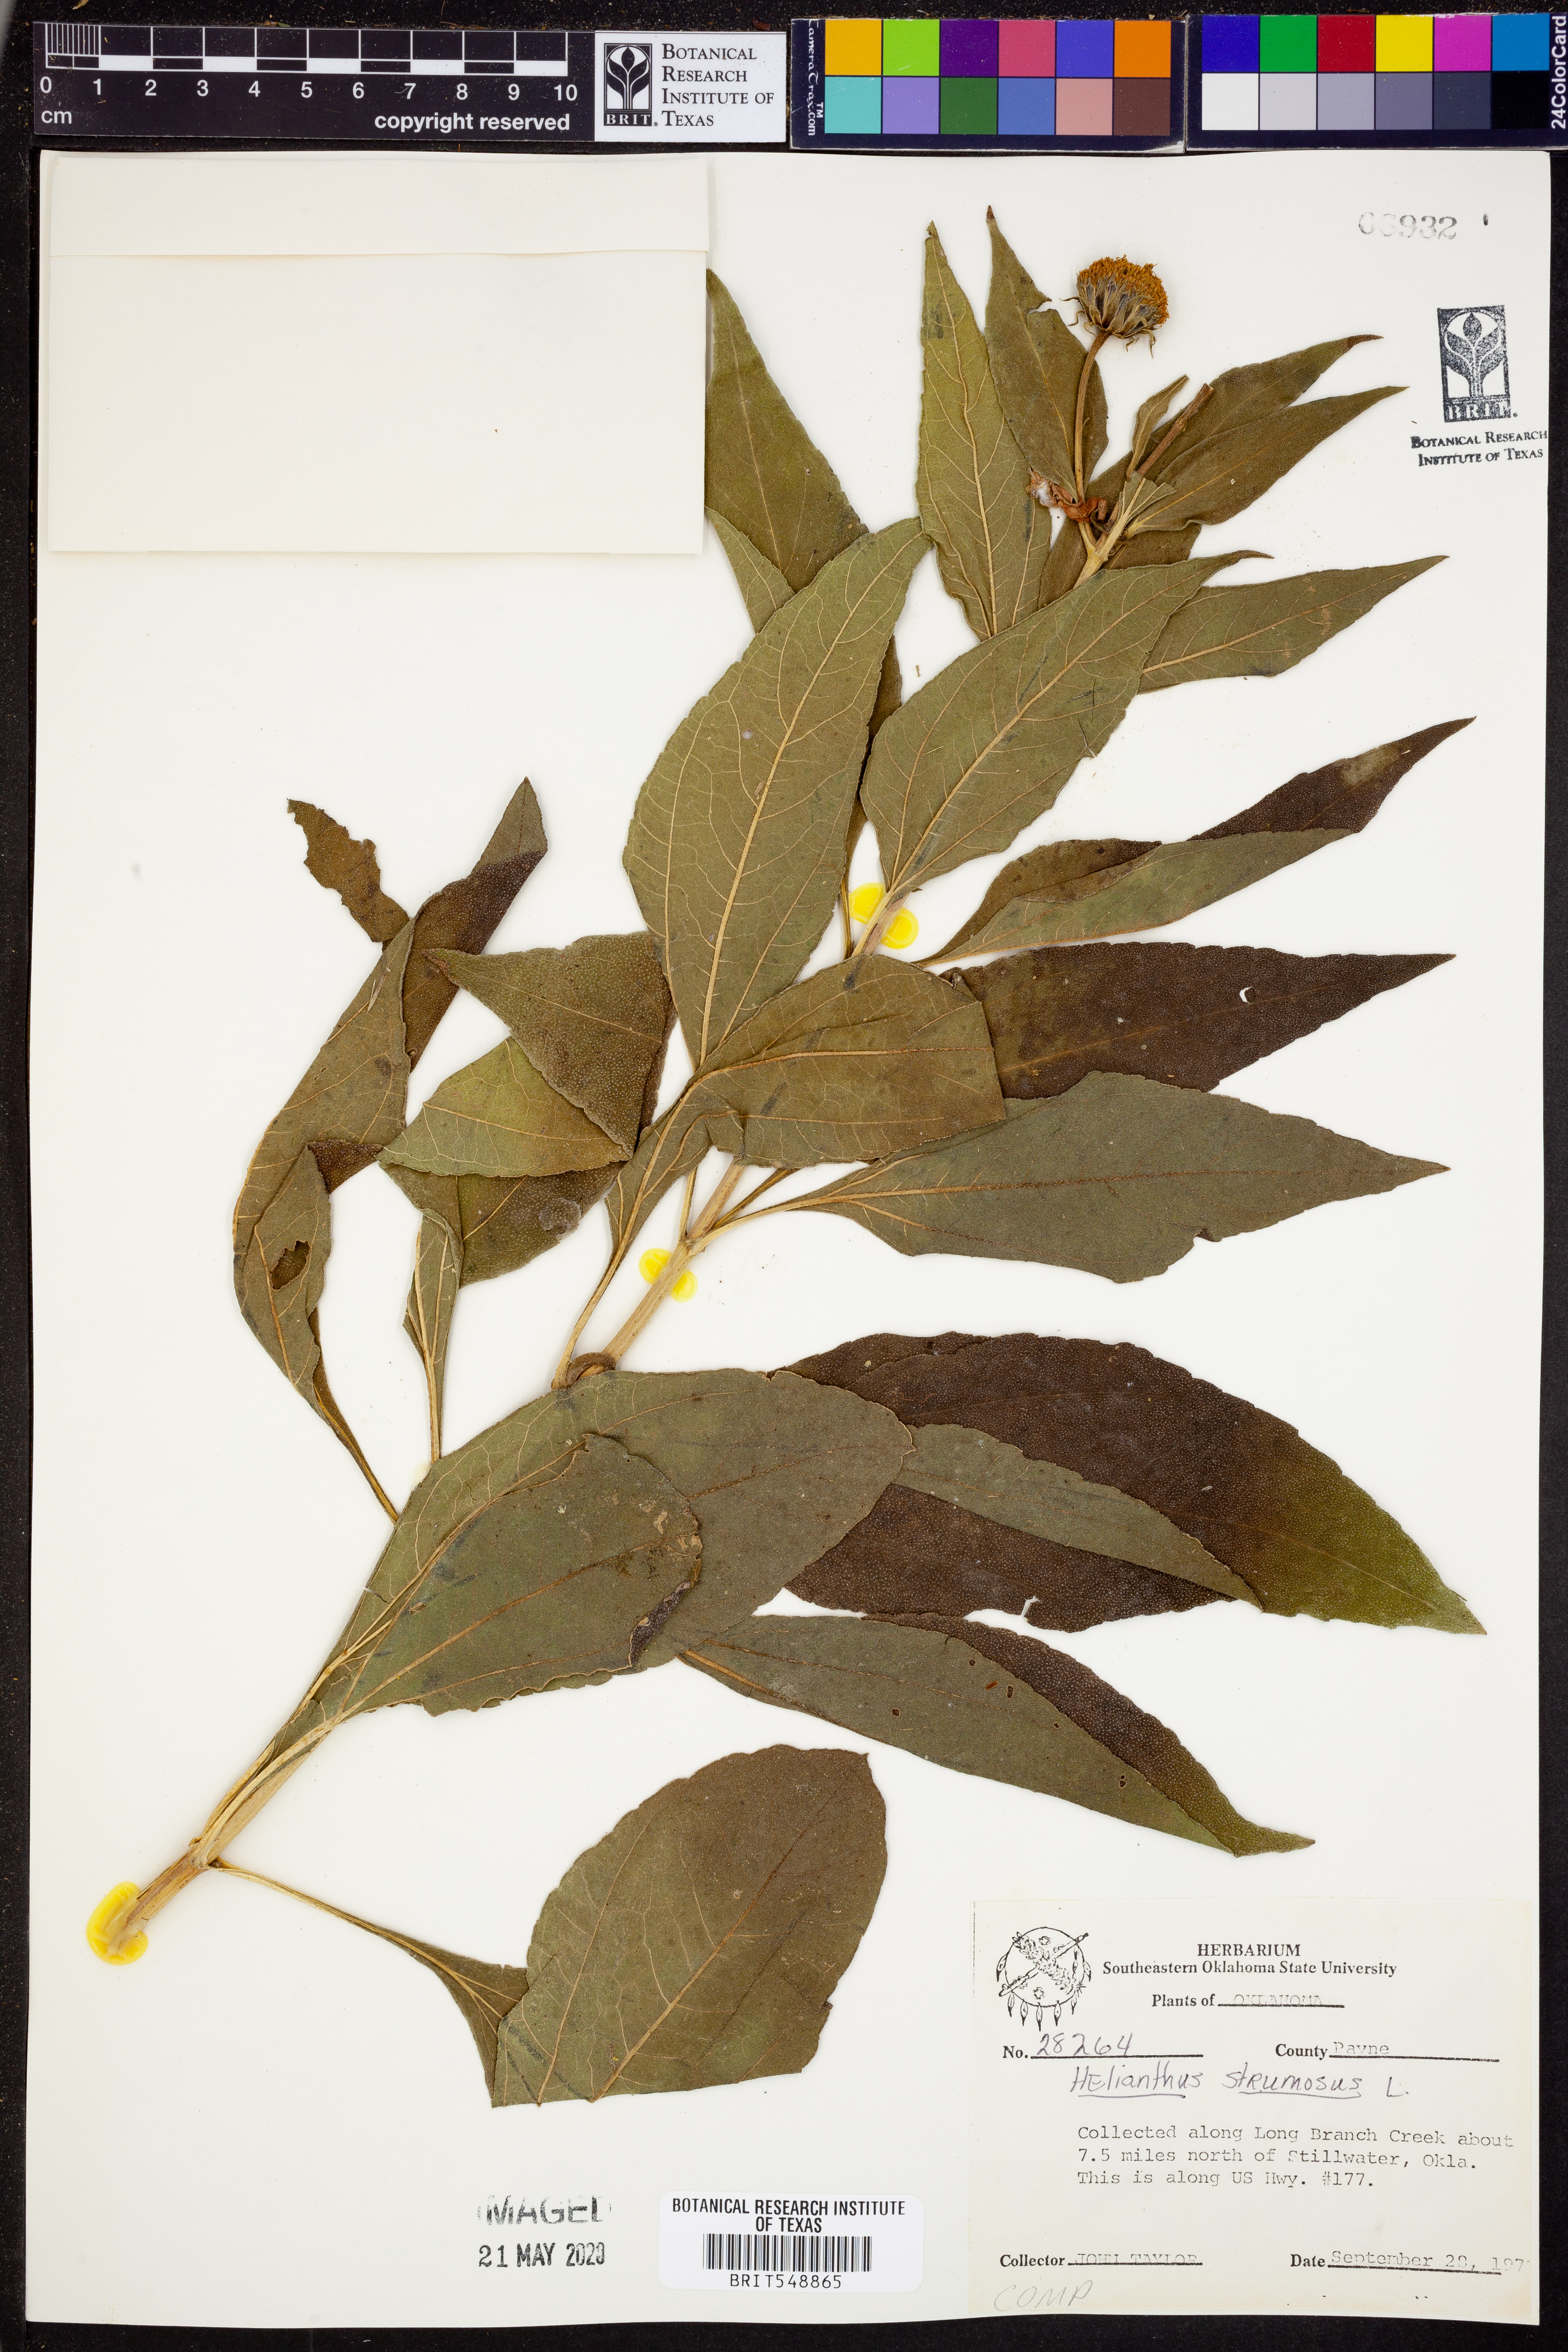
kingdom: Plantae
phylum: Tracheophyta
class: Magnoliopsida
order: Asterales
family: Asteraceae
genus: Helianthus
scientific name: Helianthus strumosus
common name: Pale-leaved sunflower
